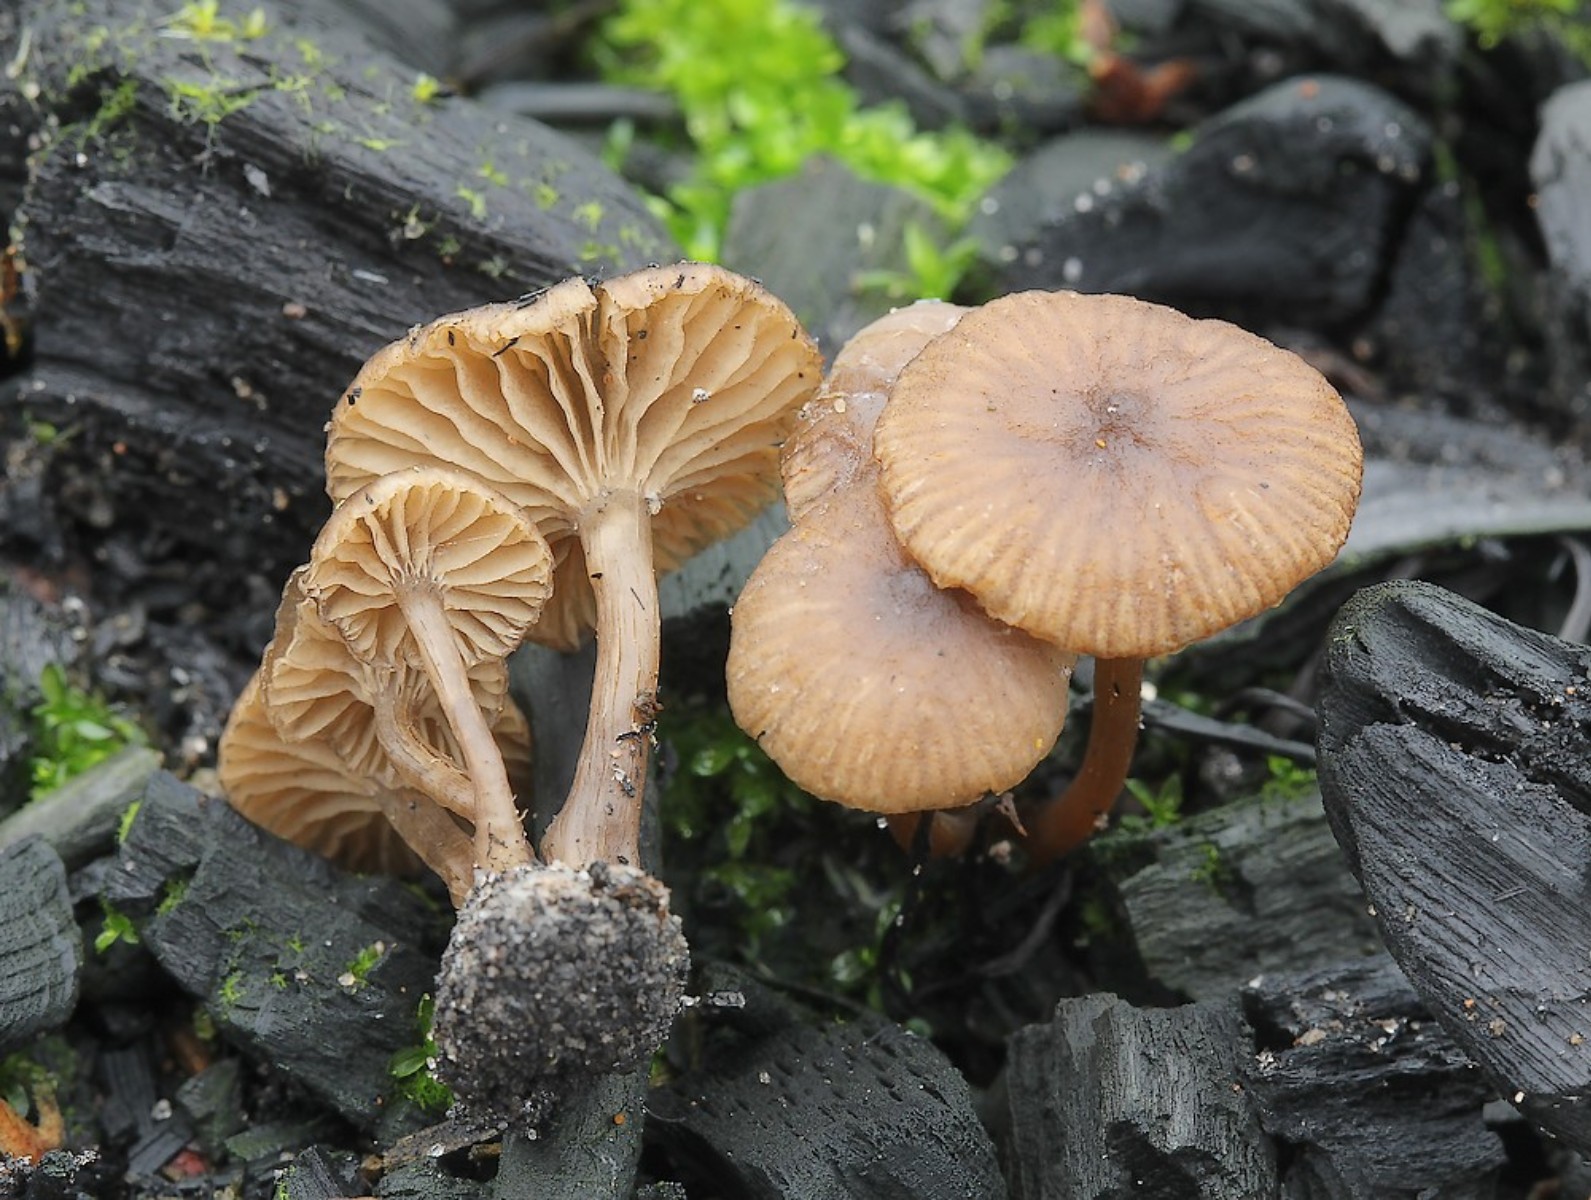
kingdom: Fungi
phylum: Basidiomycota
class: Agaricomycetes
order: Agaricales
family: Tricholomataceae
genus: Omphalina
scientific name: Omphalina pyxidata
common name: rødbrun navlehat
